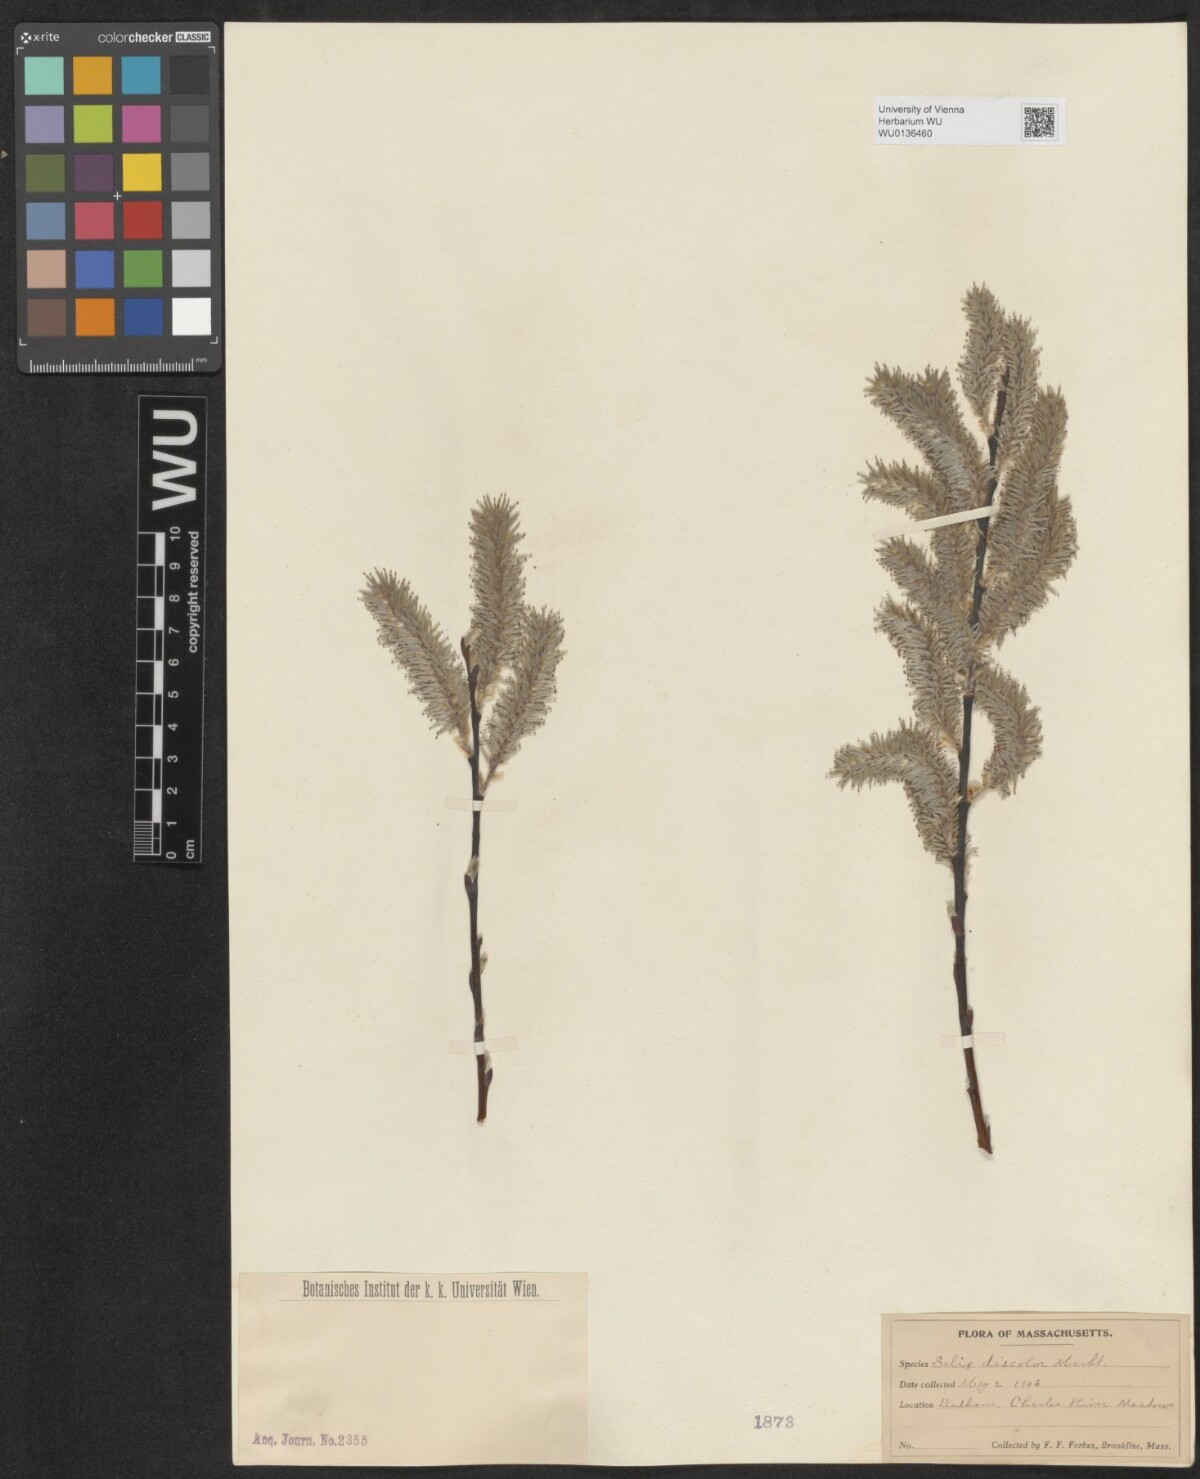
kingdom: Plantae
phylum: Tracheophyta
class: Magnoliopsida
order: Malpighiales
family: Salicaceae
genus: Salix
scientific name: Salix discolor
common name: Glaucous willow
